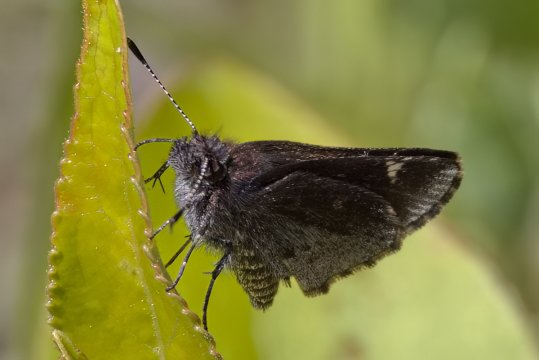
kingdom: Animalia
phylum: Arthropoda
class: Insecta
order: Lepidoptera
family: Hesperiidae
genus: Mastor
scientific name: Mastor vialis
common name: Common Roadside-Skipper
